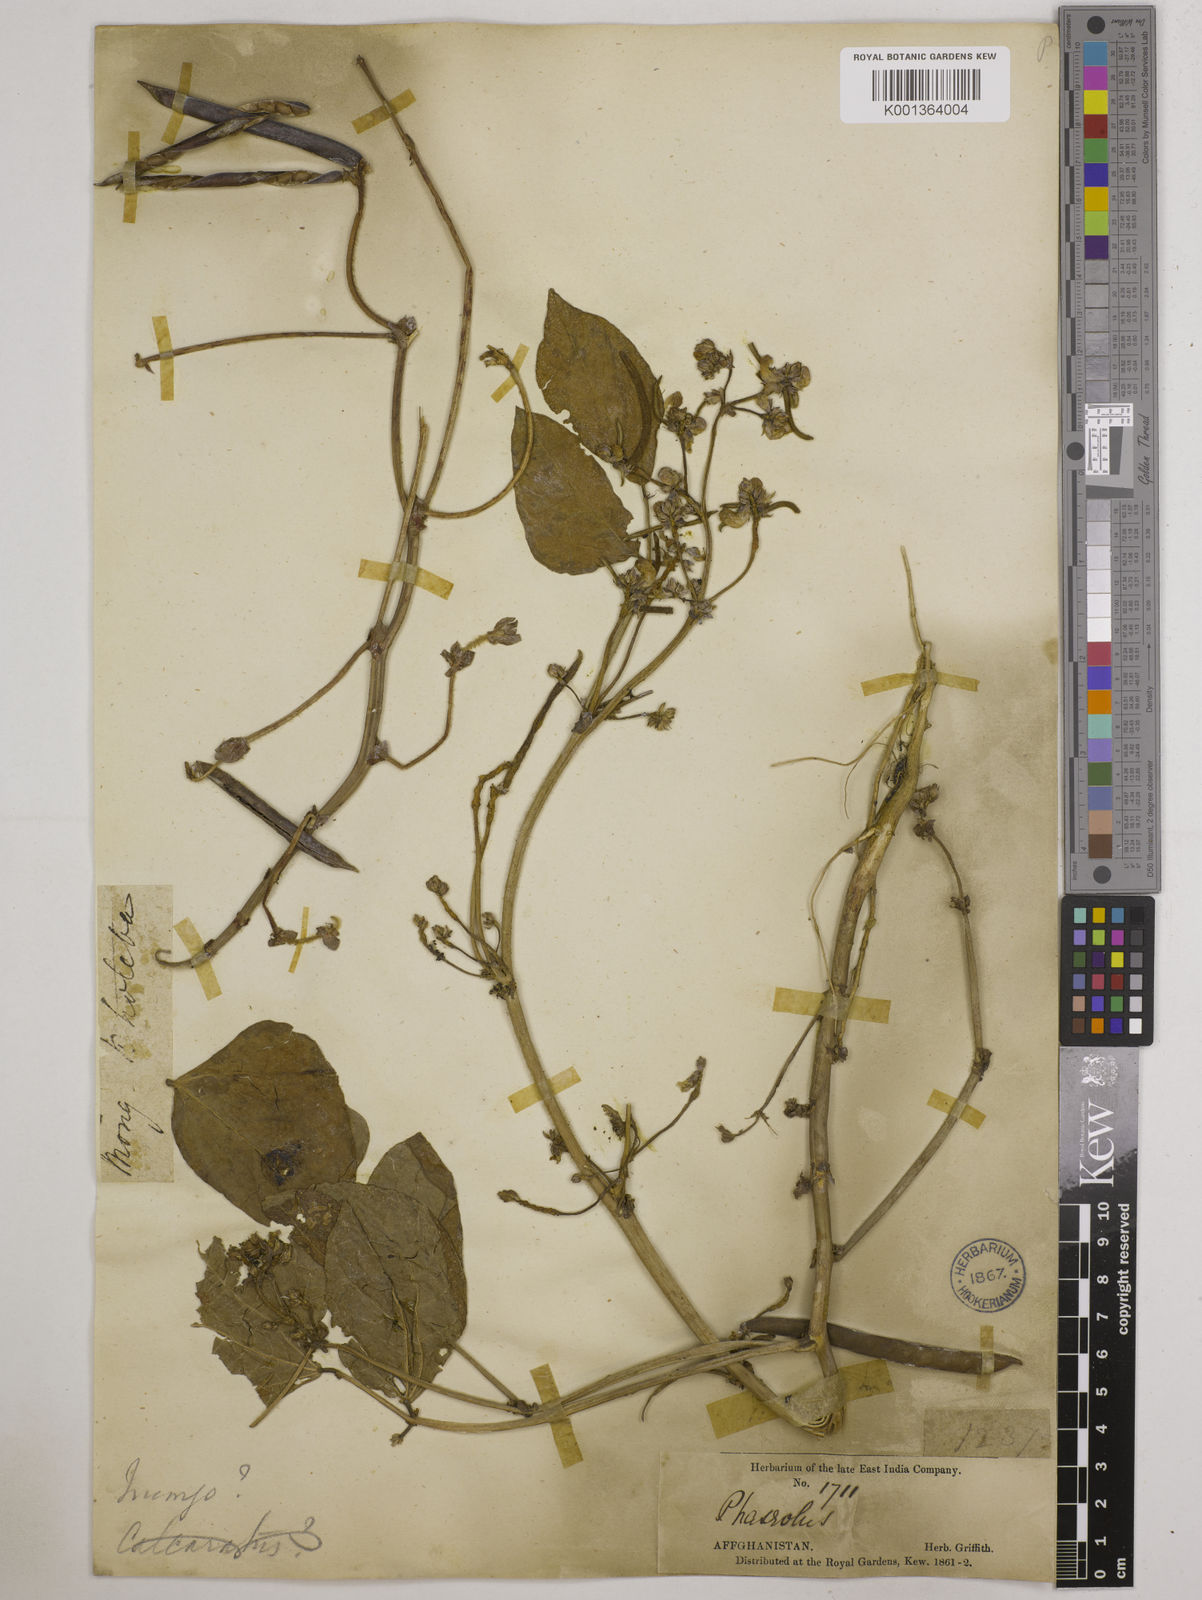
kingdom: Plantae
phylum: Tracheophyta
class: Magnoliopsida
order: Fabales
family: Fabaceae
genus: Vigna
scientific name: Vigna radiata
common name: Mung-bean
